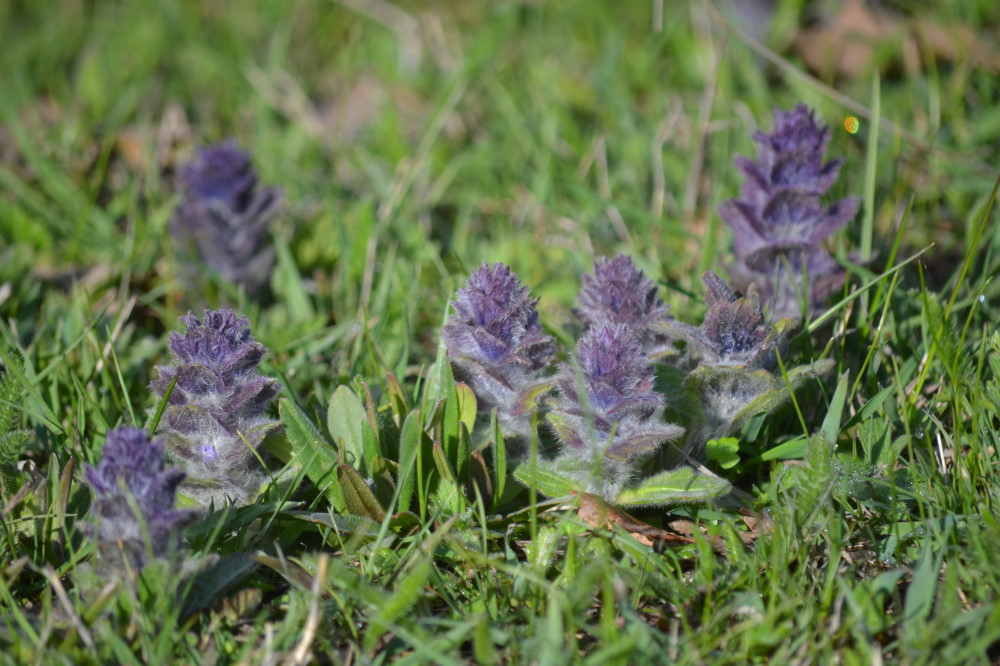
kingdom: Plantae
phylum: Tracheophyta
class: Magnoliopsida
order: Lamiales
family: Lamiaceae
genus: Ajuga
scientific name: Ajuga orientalis
